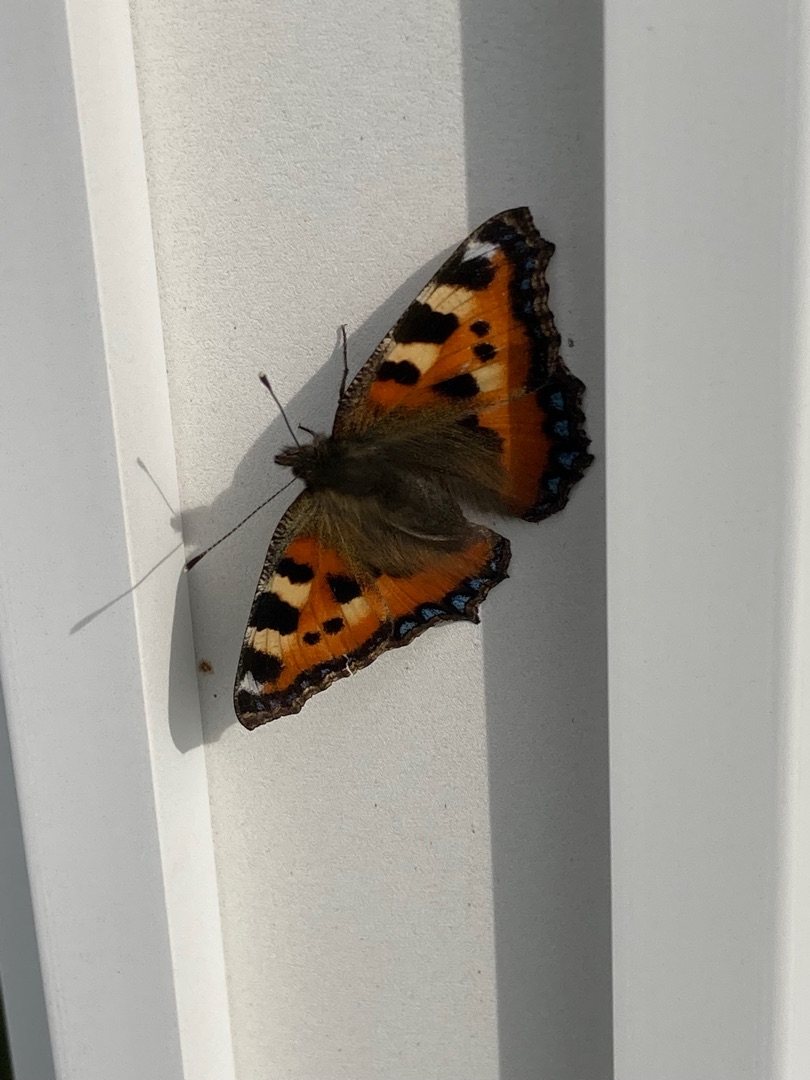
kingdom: Animalia
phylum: Arthropoda
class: Insecta
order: Lepidoptera
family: Nymphalidae
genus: Aglais
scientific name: Aglais urticae
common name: Nældens takvinge
